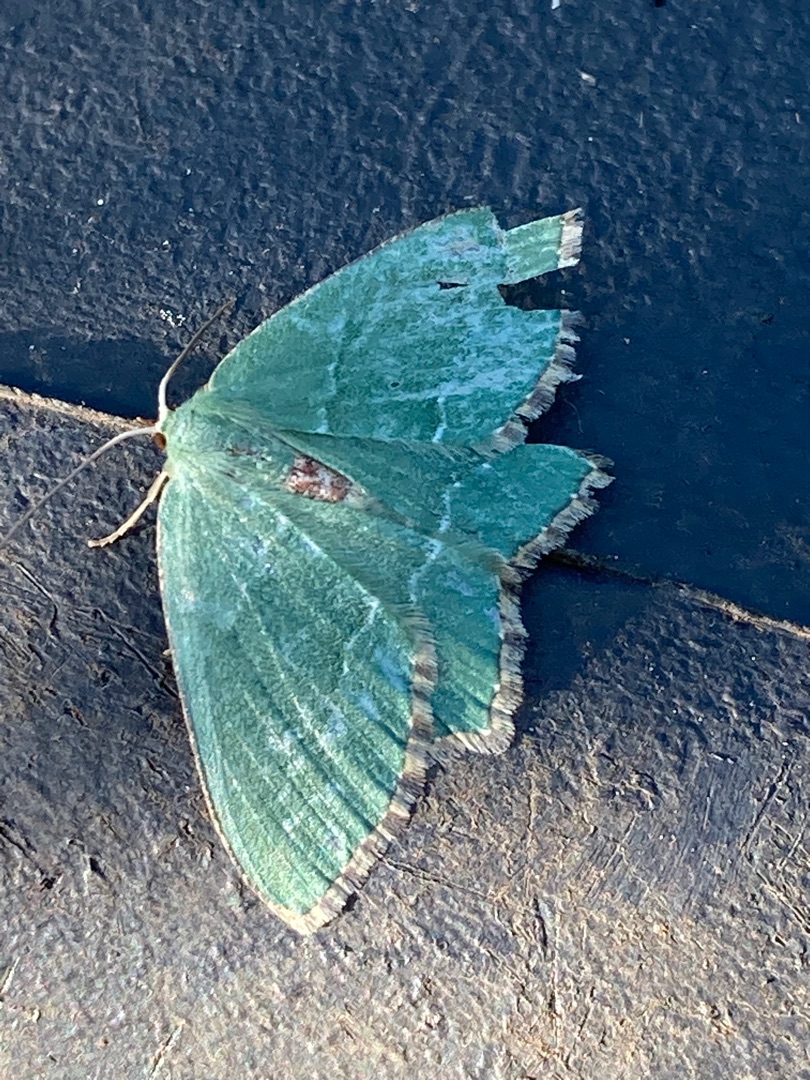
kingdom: Animalia
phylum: Arthropoda
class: Insecta
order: Lepidoptera
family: Geometridae
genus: Hemithea
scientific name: Hemithea aestivaria
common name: Lundmåler
